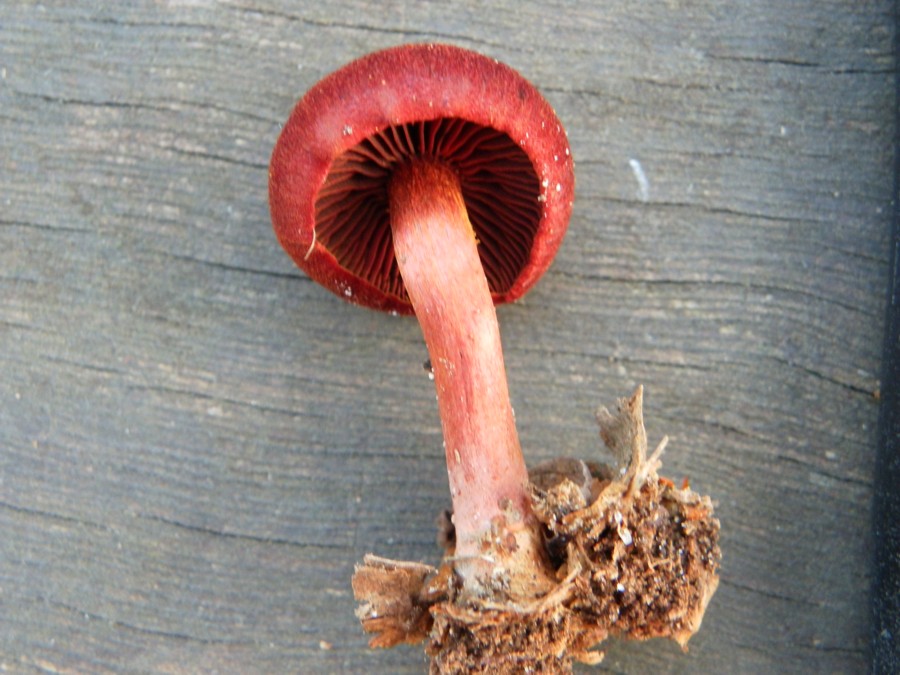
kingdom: Fungi
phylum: Basidiomycota
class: Agaricomycetes
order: Agaricales
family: Cortinariaceae
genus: Cortinarius
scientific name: Cortinarius sanguineus
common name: Bloodred webcap
